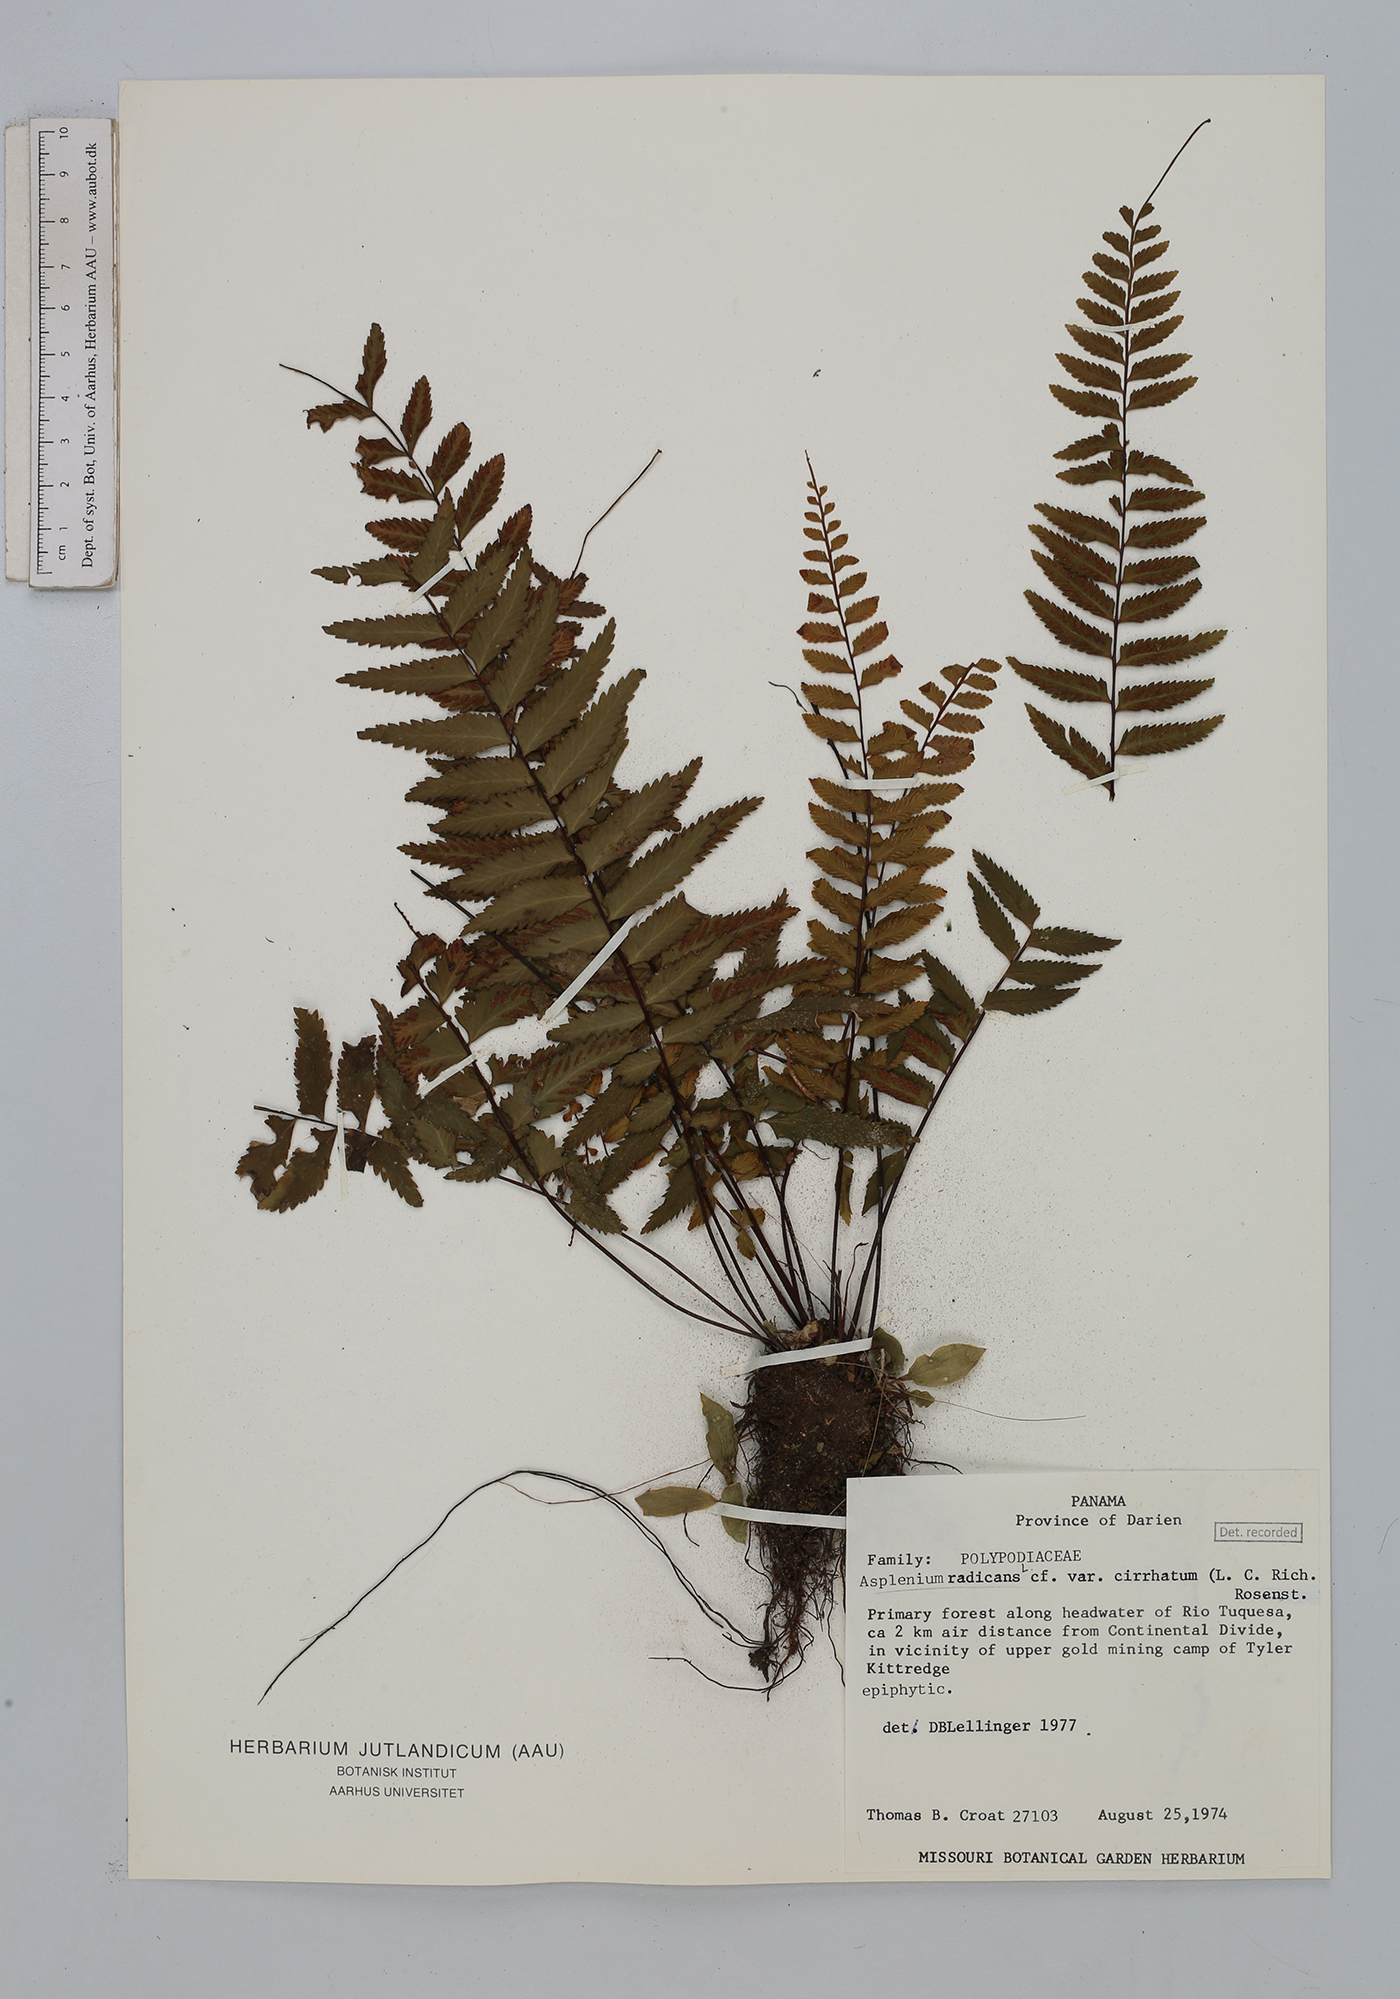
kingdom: Plantae
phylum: Tracheophyta
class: Polypodiopsida
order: Polypodiales
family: Aspleniaceae
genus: Asplenium
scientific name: Asplenium cirrhatum
